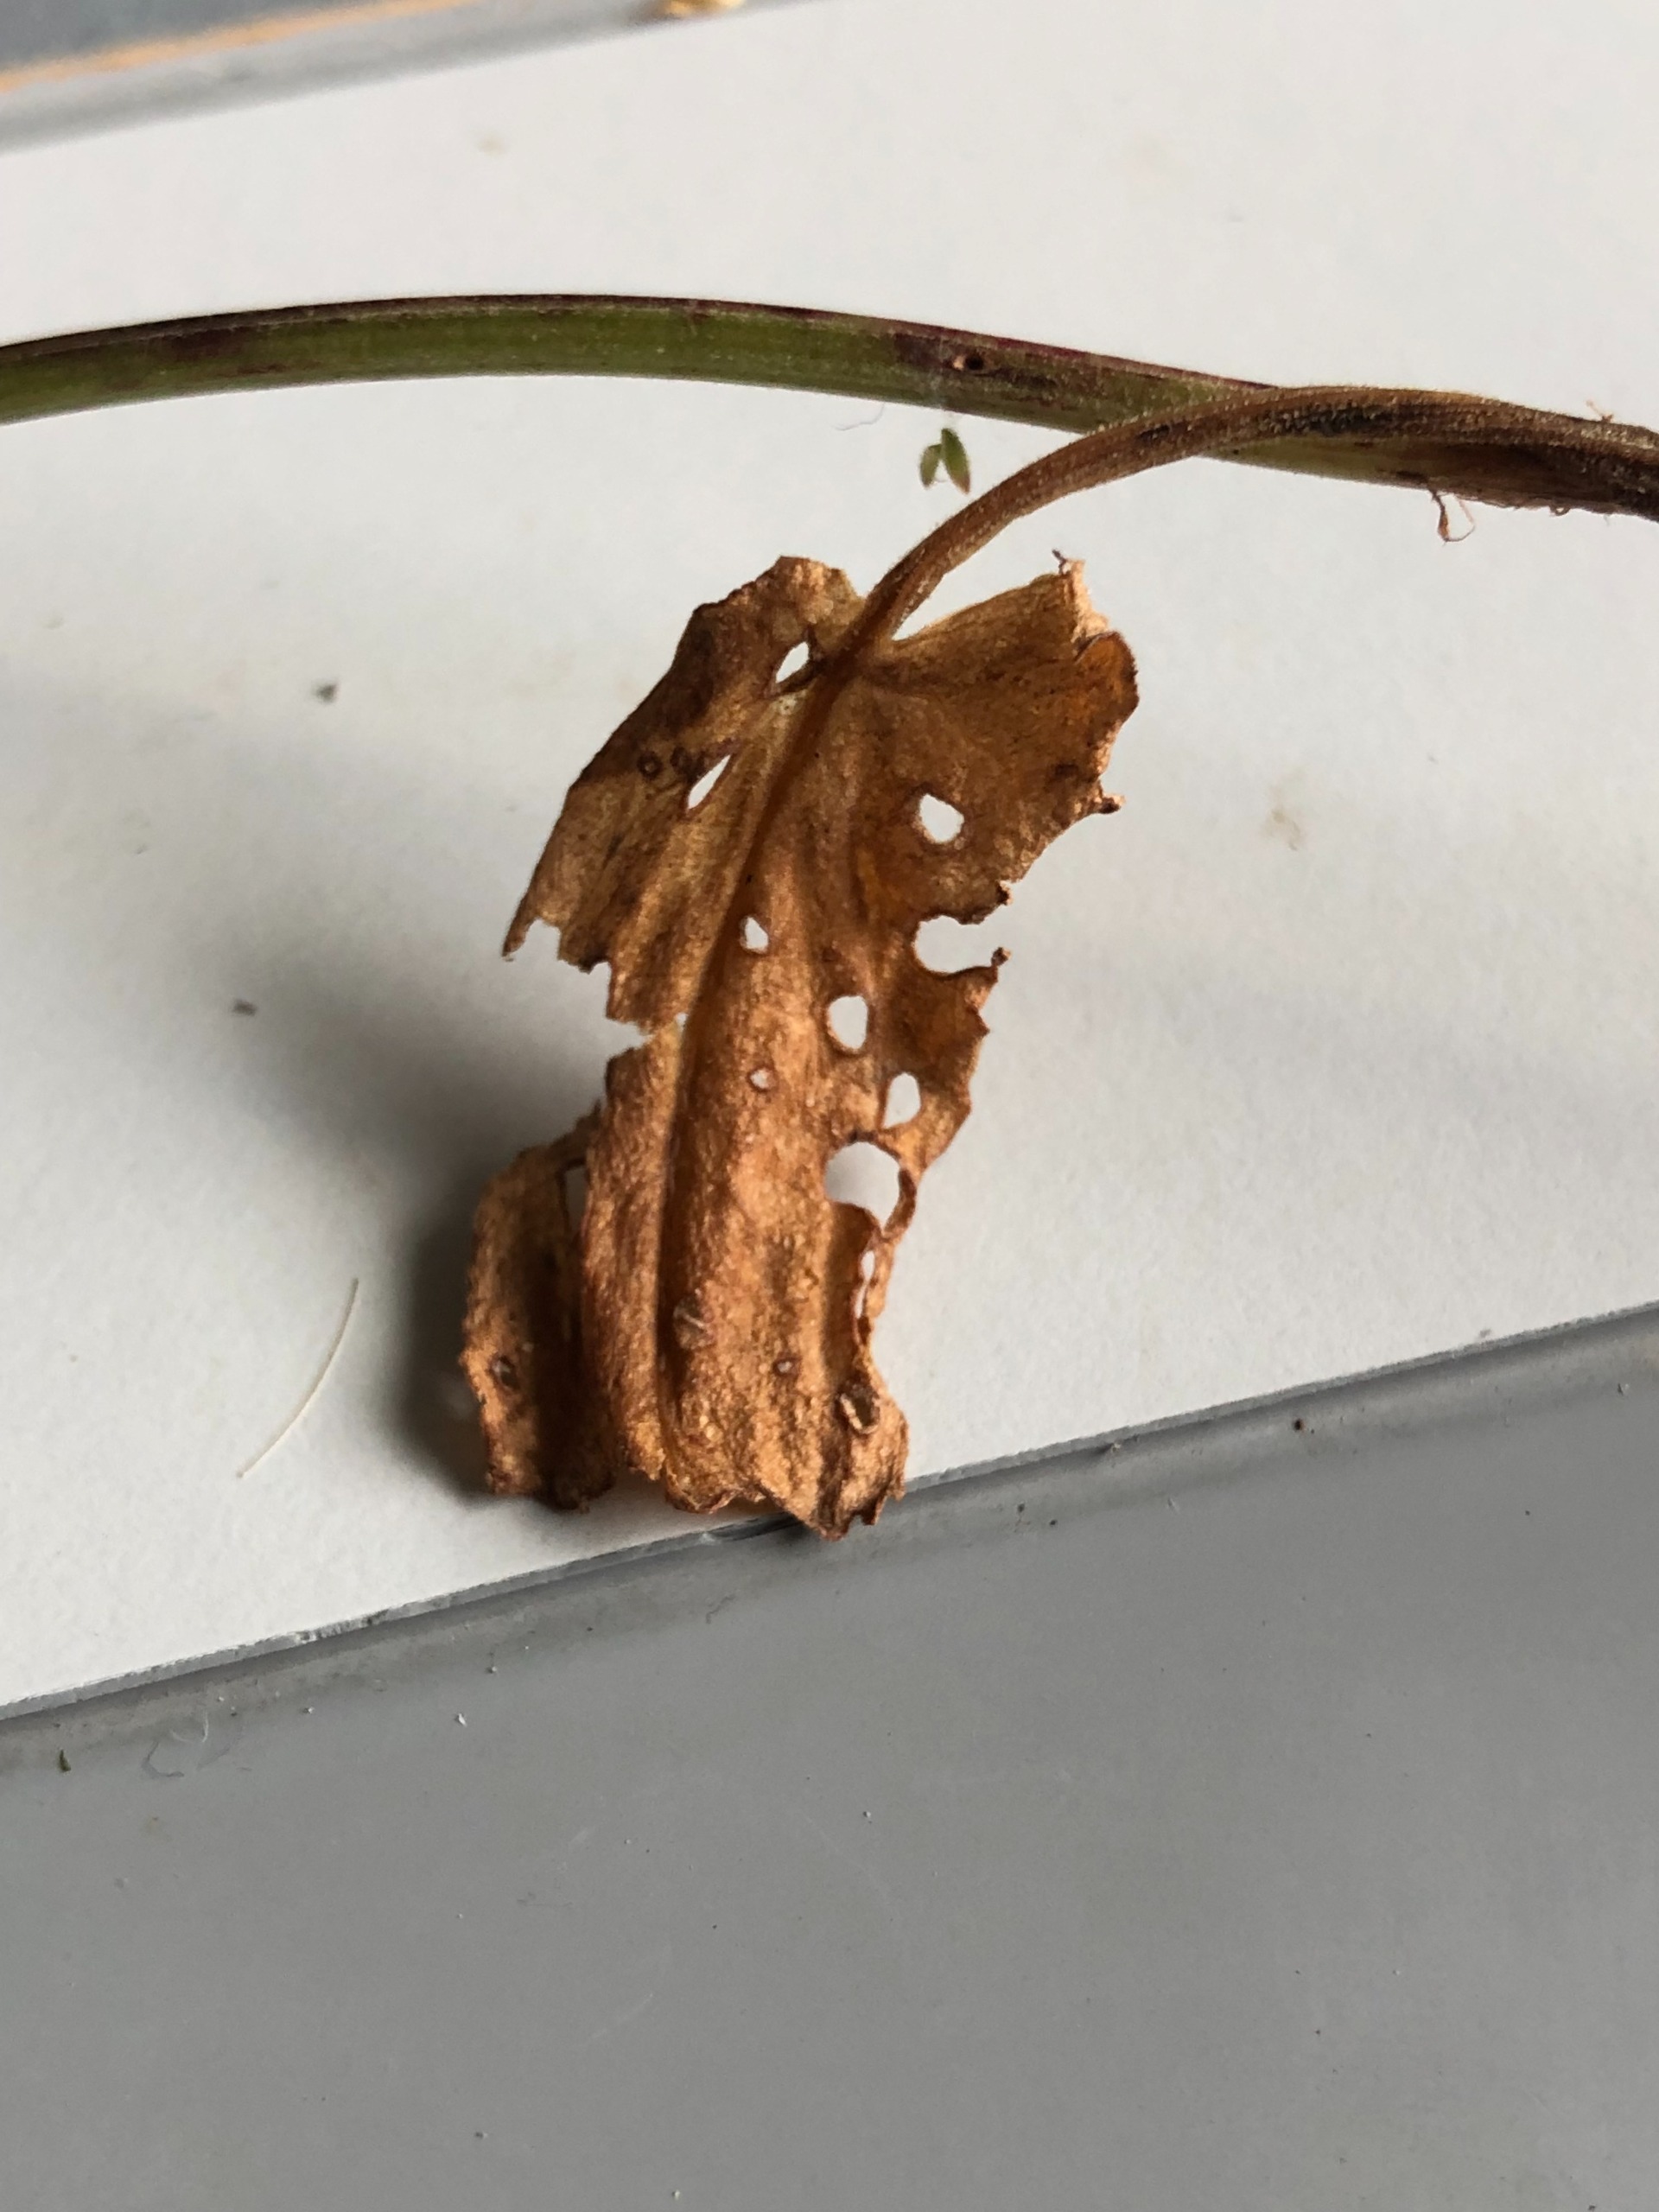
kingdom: Plantae
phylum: Tracheophyta
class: Magnoliopsida
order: Caryophyllales
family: Polygonaceae
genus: Rumex
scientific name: Rumex acetosa
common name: Almindelig syre
